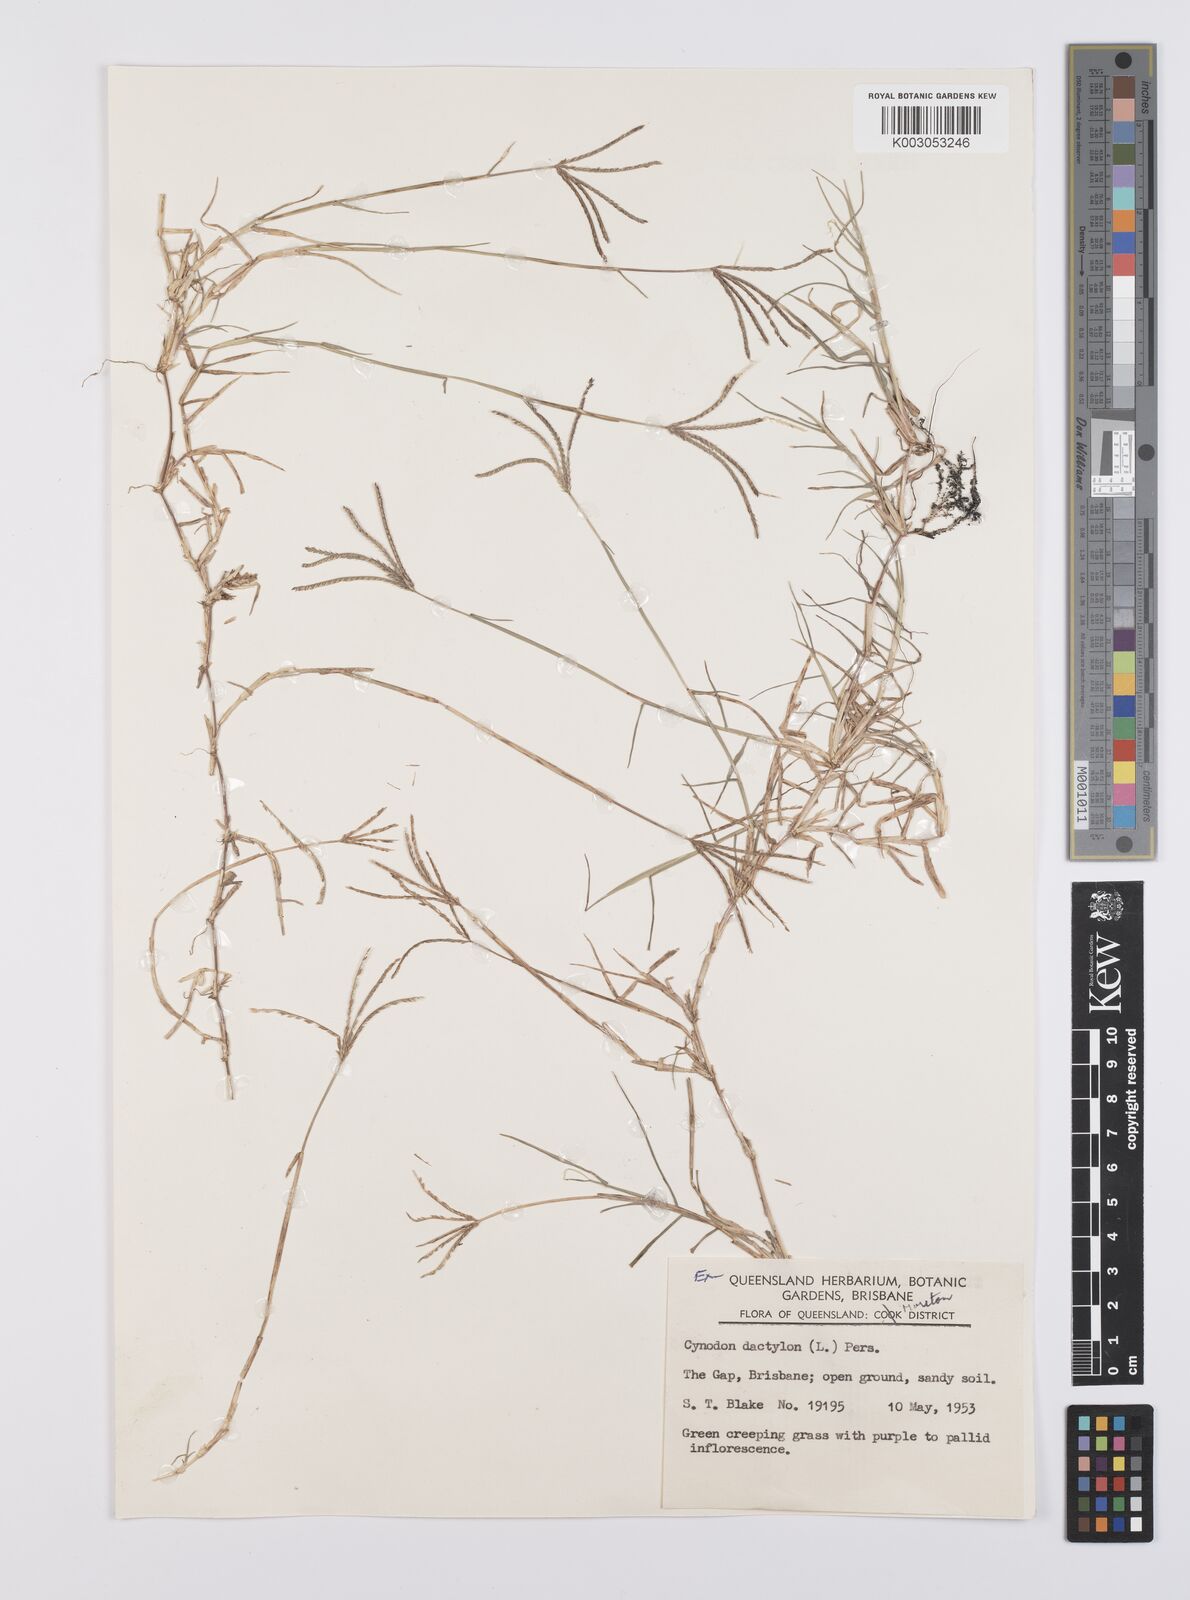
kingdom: Plantae
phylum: Tracheophyta
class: Liliopsida
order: Poales
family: Poaceae
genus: Cynodon
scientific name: Cynodon dactylon
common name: Bermuda grass
